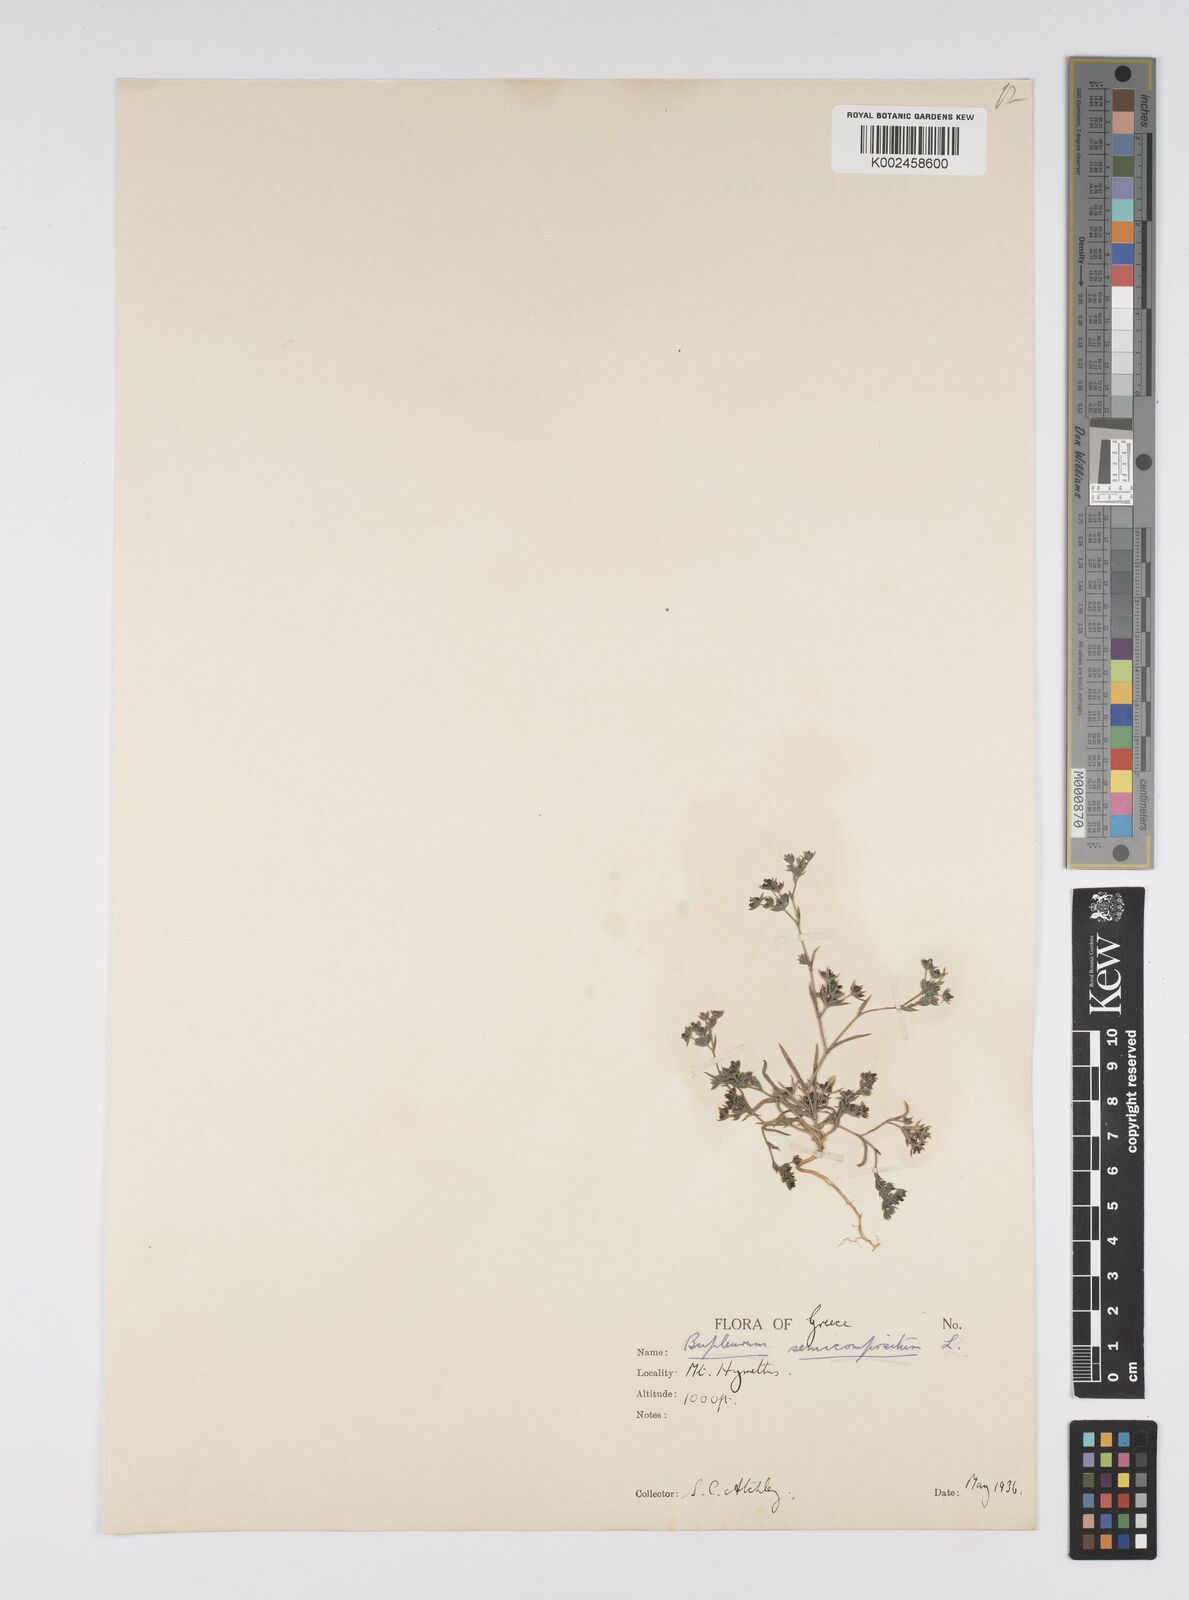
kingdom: Plantae
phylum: Tracheophyta
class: Magnoliopsida
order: Apiales
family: Apiaceae
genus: Bupleurum
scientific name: Bupleurum semicompositum
